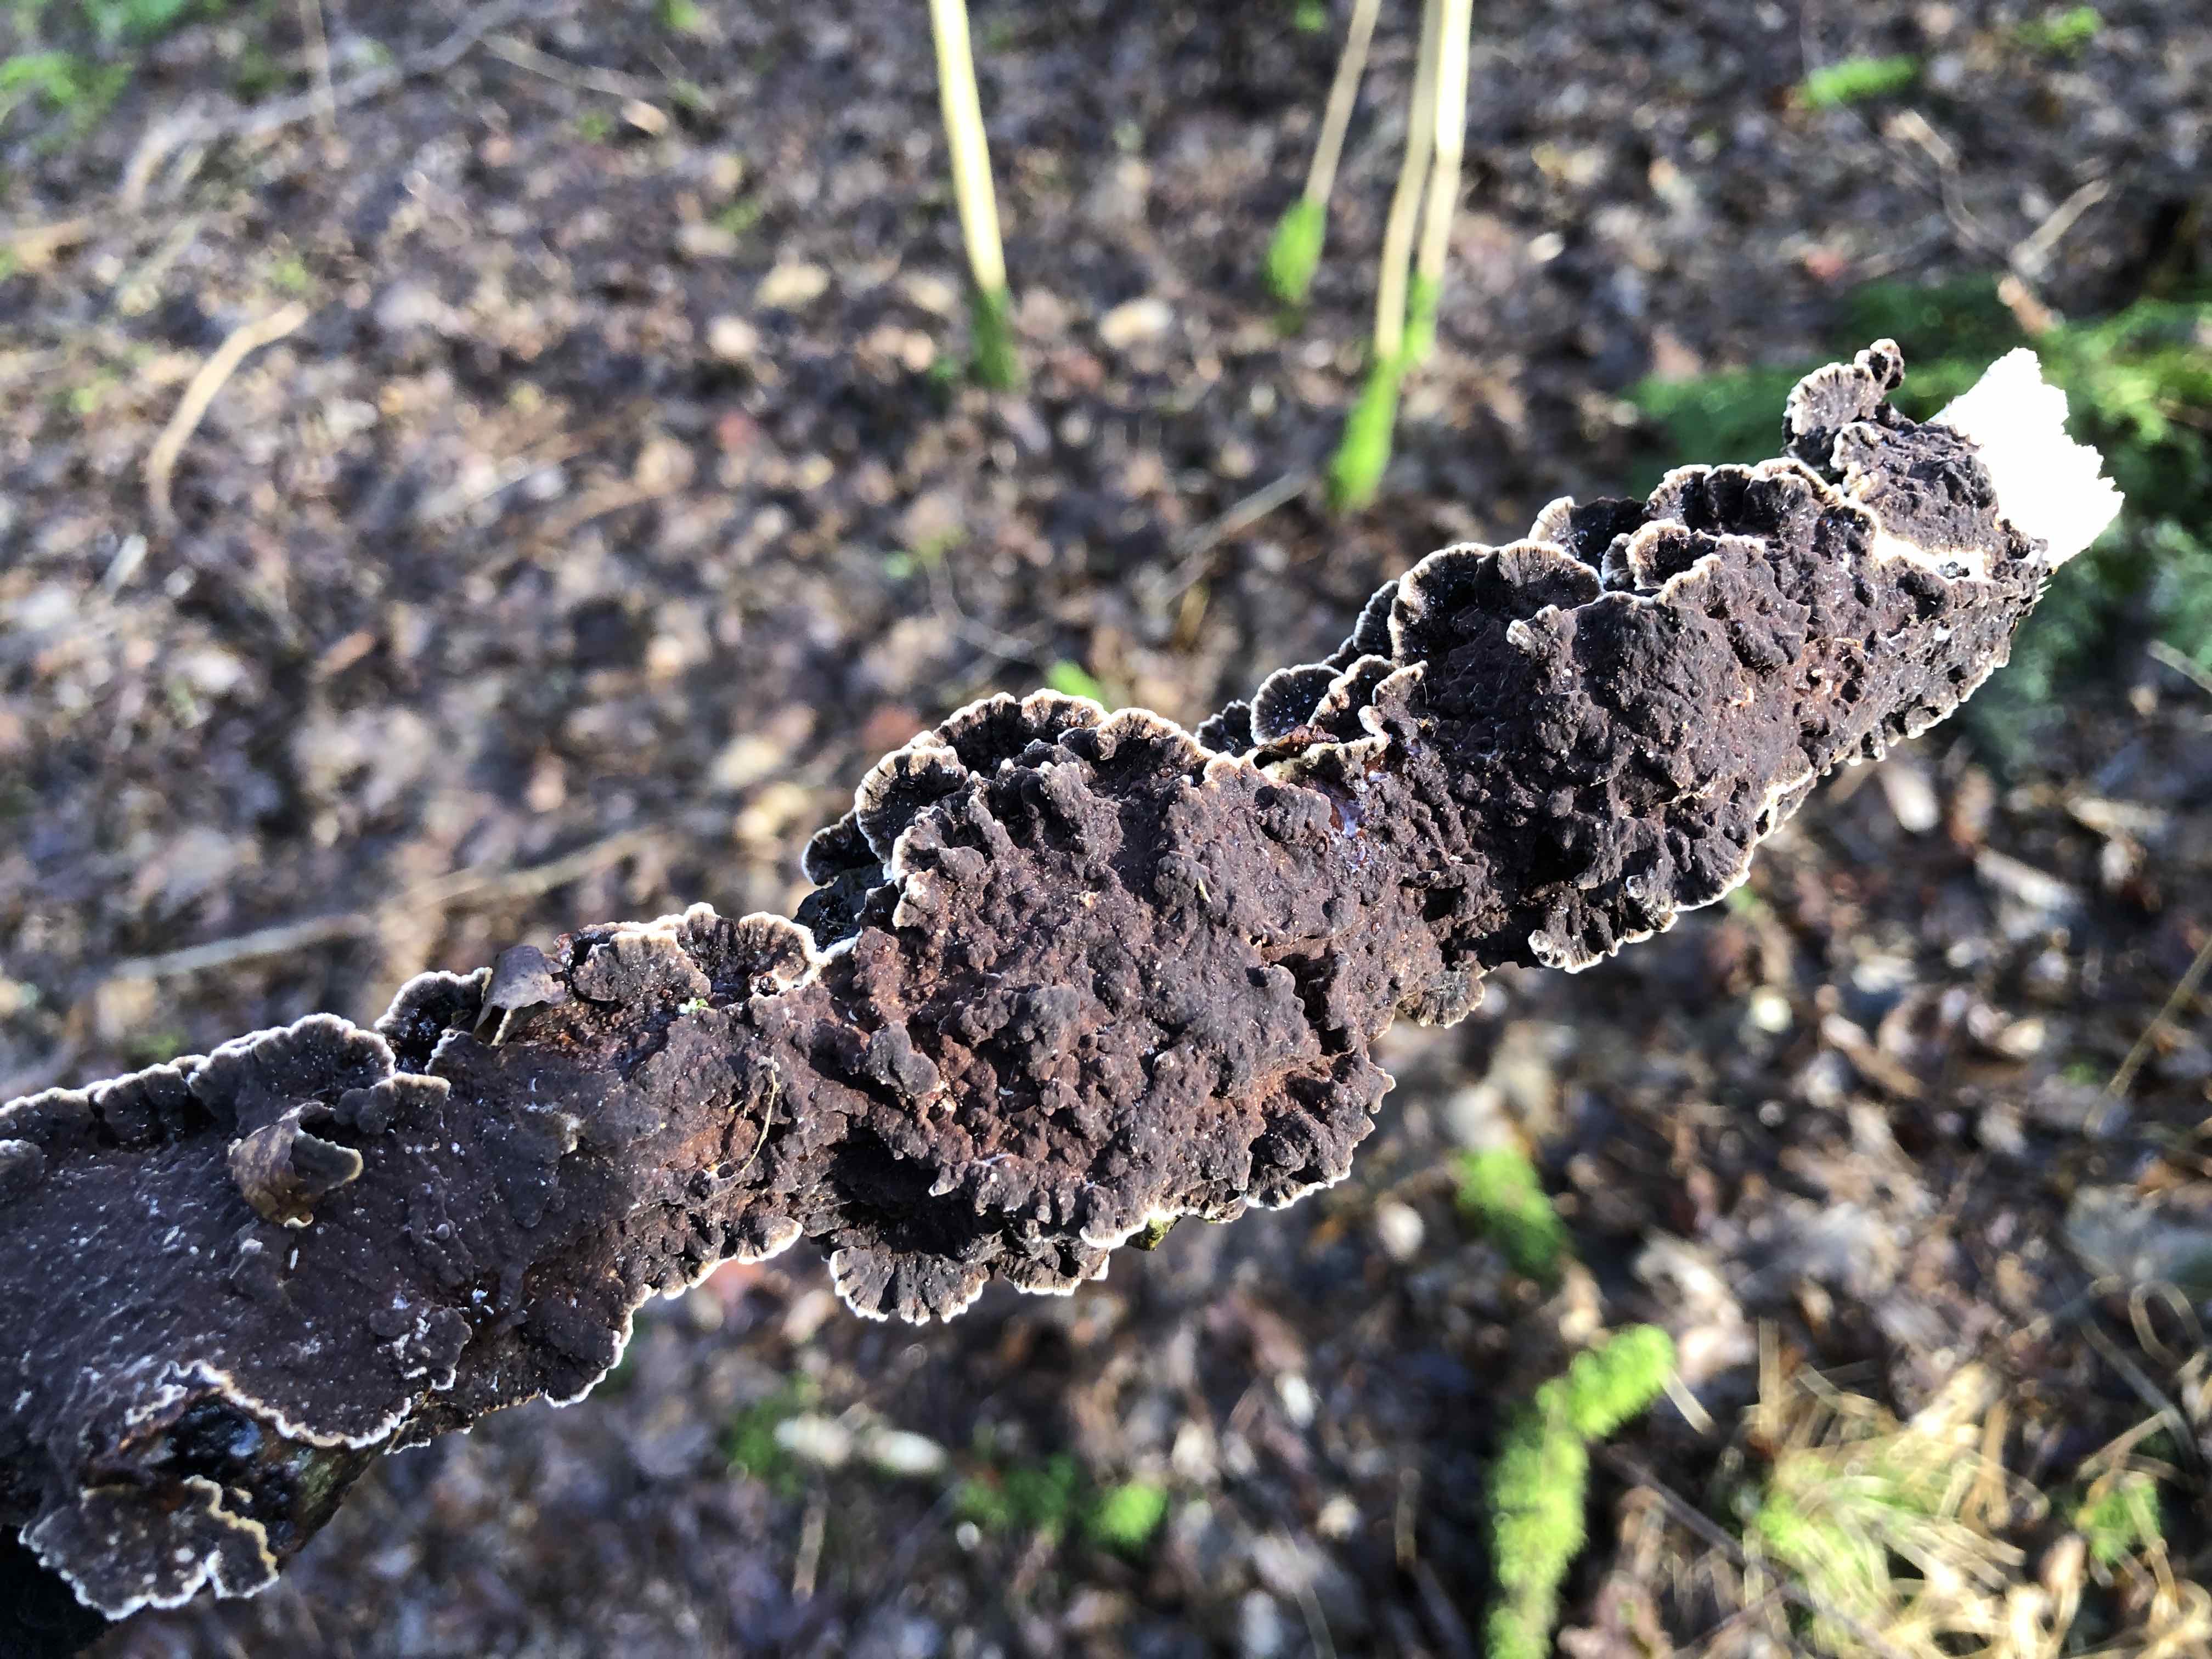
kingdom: Fungi
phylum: Basidiomycota
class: Agaricomycetes
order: Hymenochaetales
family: Hymenochaetaceae
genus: Hydnoporia
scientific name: Hydnoporia tabacina
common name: tobaksbrun ruslædersvamp
